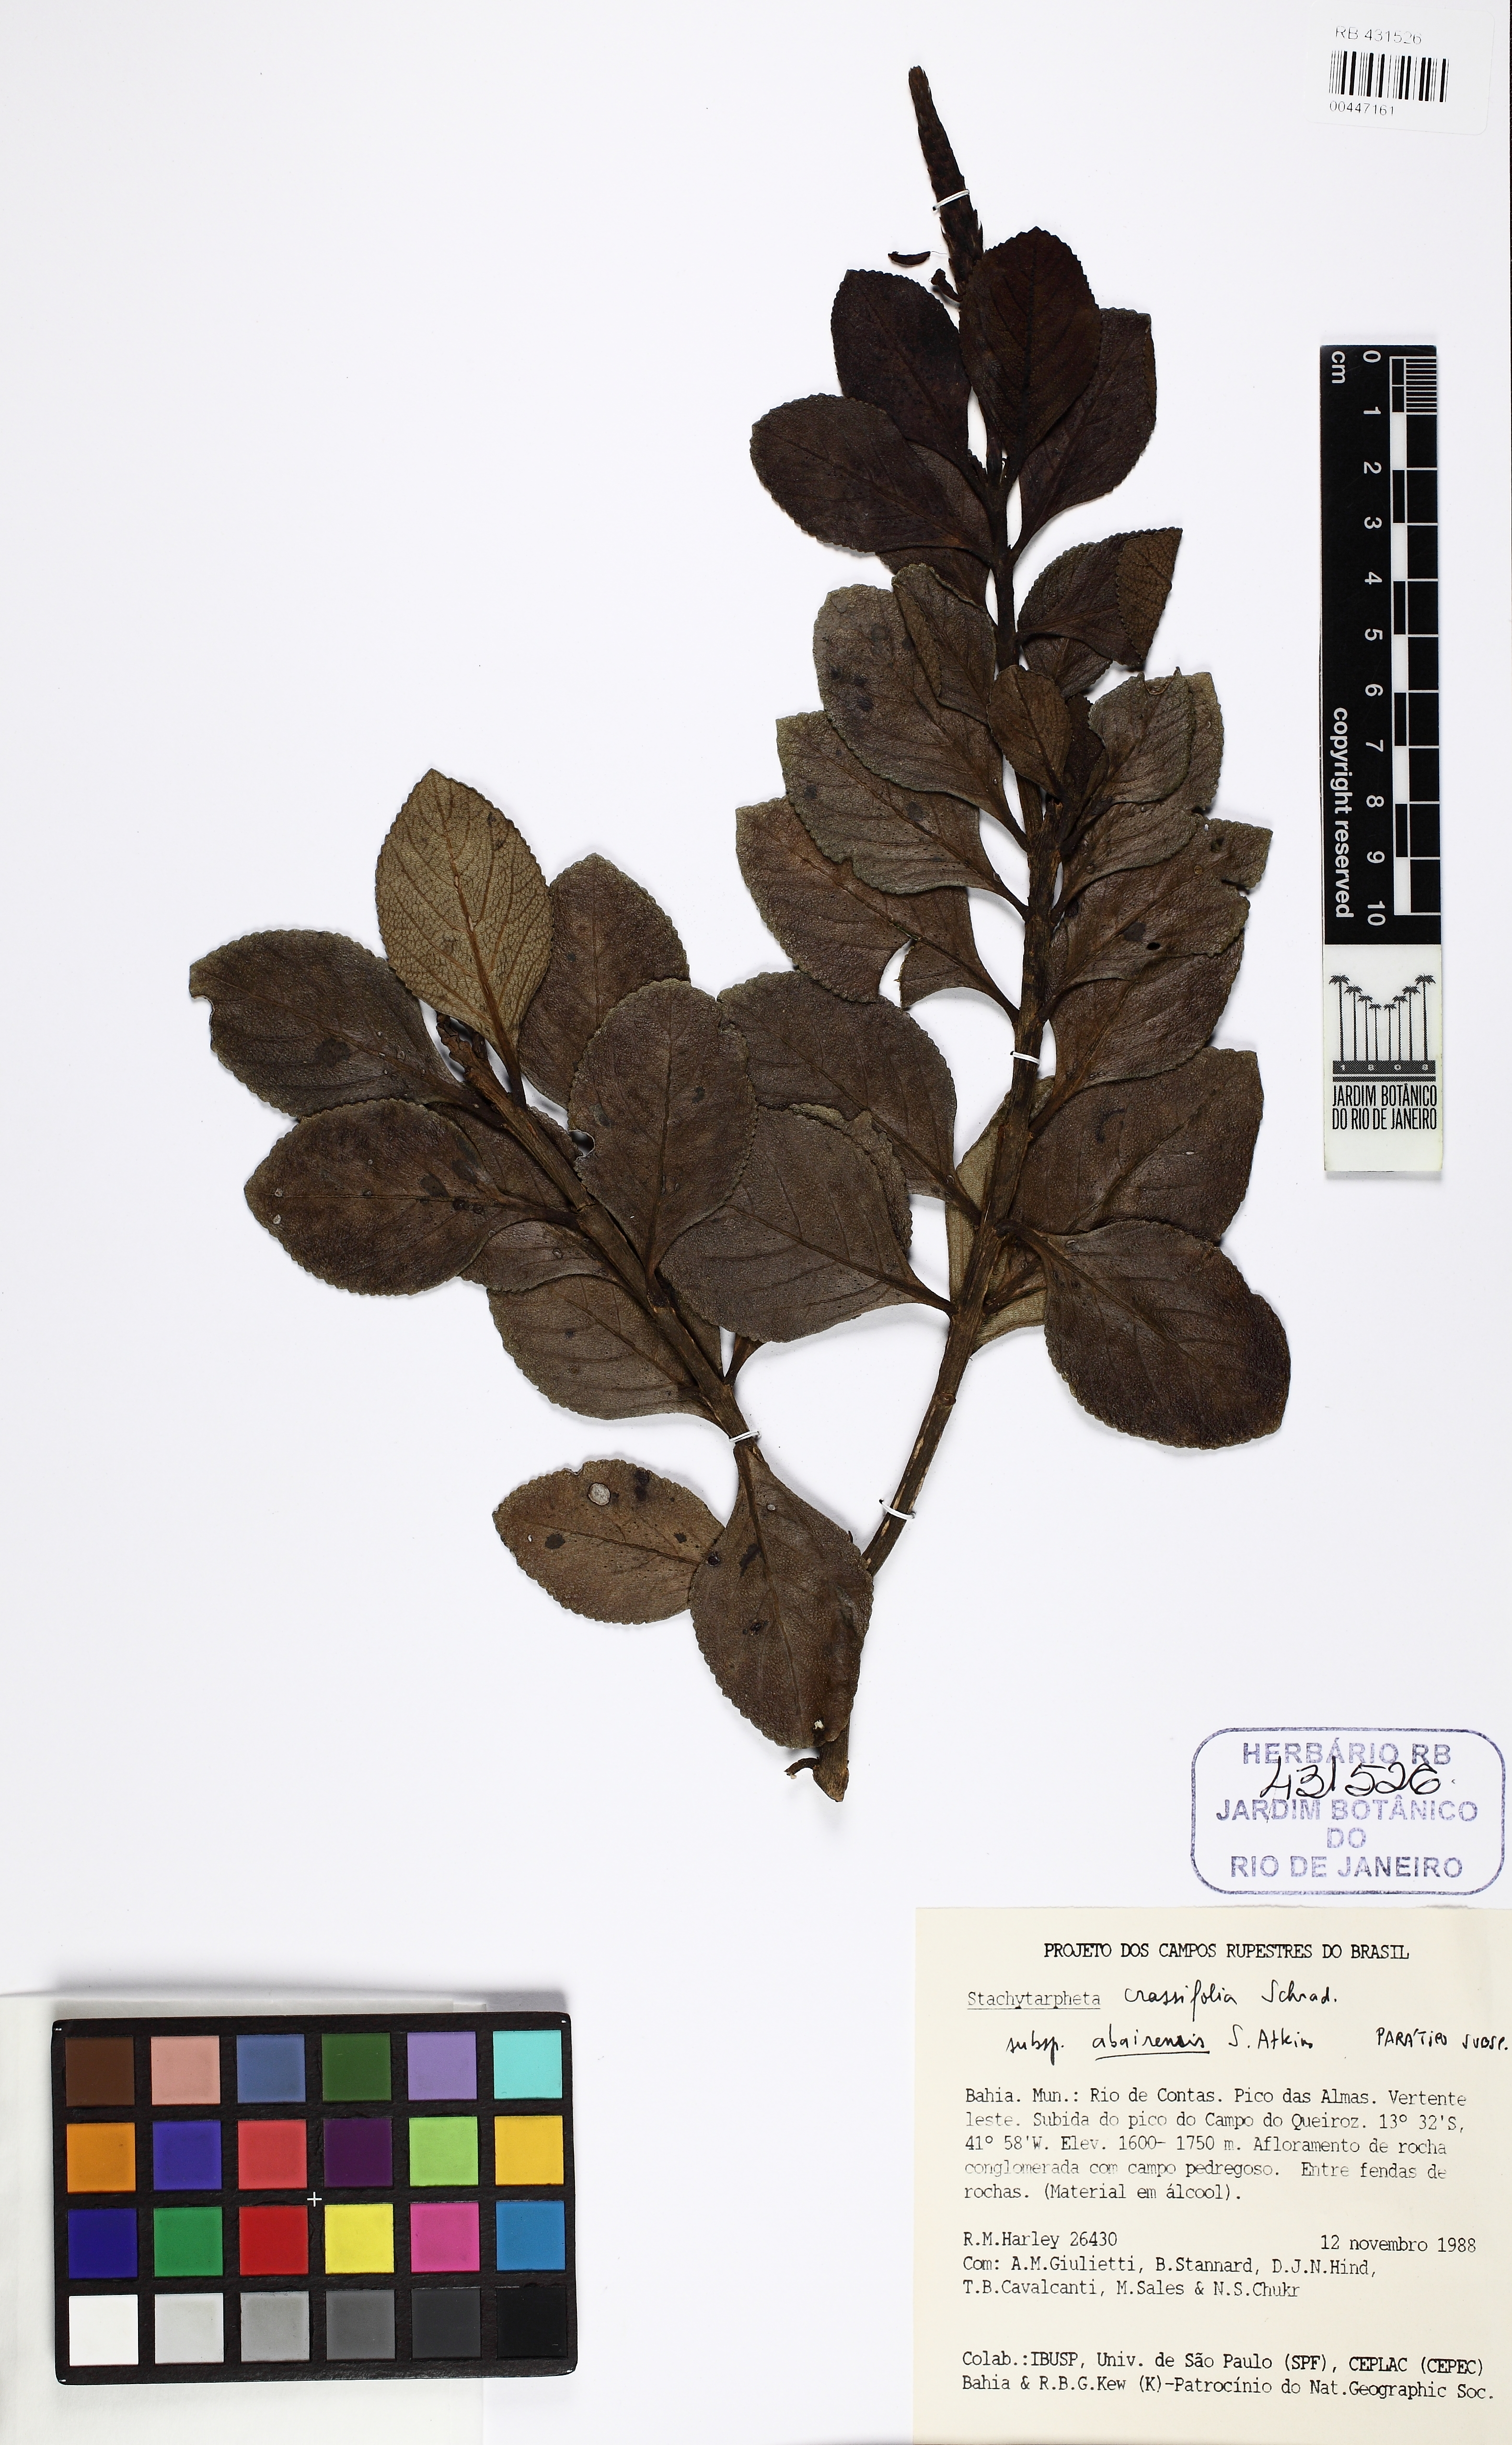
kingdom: Plantae
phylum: Tracheophyta
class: Magnoliopsida
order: Lamiales
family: Verbenaceae
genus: Stachytarpheta
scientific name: Stachytarpheta crassifolia
